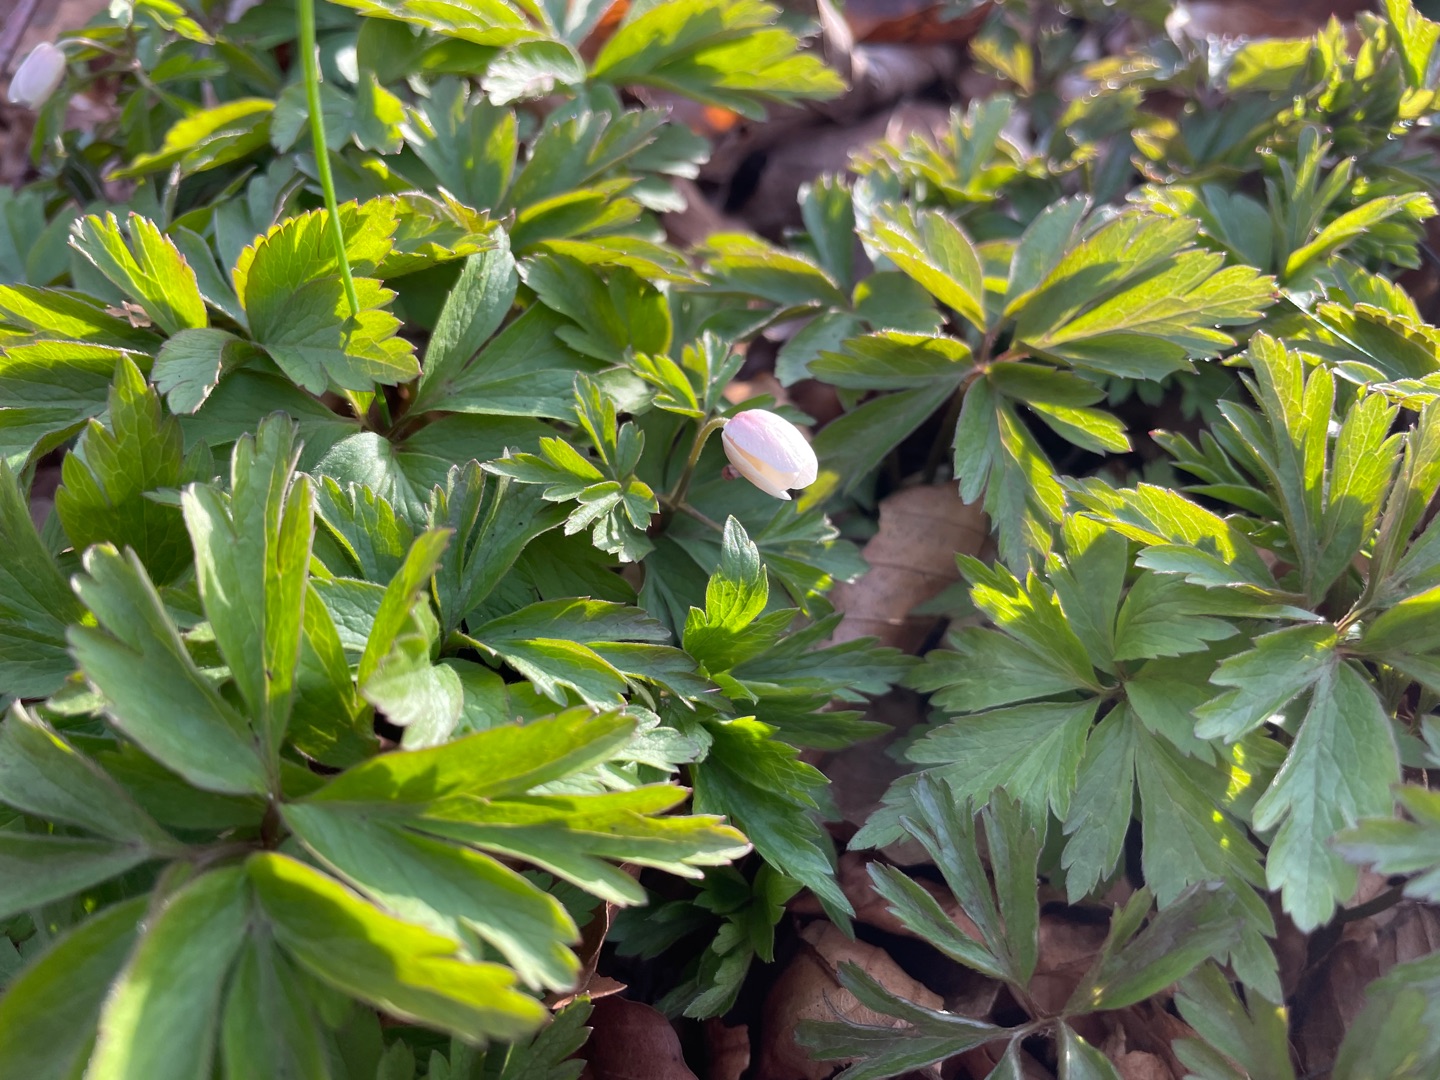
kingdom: Plantae
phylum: Tracheophyta
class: Magnoliopsida
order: Ranunculales
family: Ranunculaceae
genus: Anemone
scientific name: Anemone nemorosa
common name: Hvid anemone
